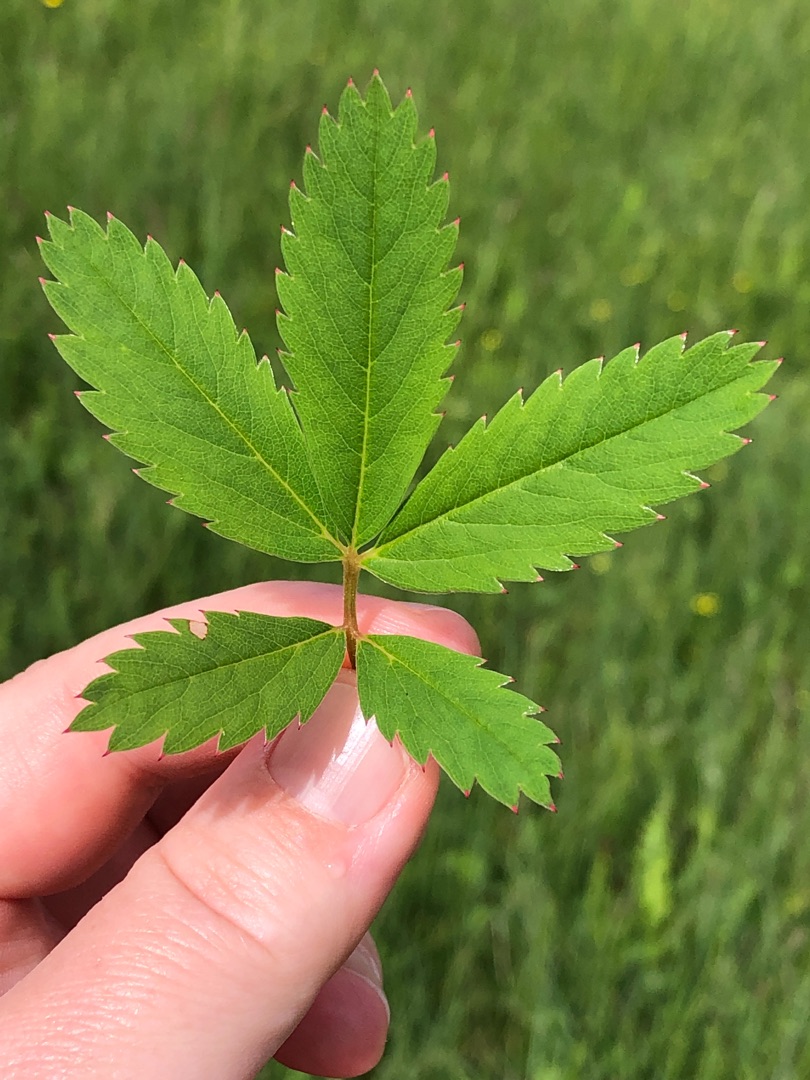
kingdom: Plantae
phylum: Tracheophyta
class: Magnoliopsida
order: Rosales
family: Rosaceae
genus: Comarum
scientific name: Comarum palustre
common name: Kragefod
